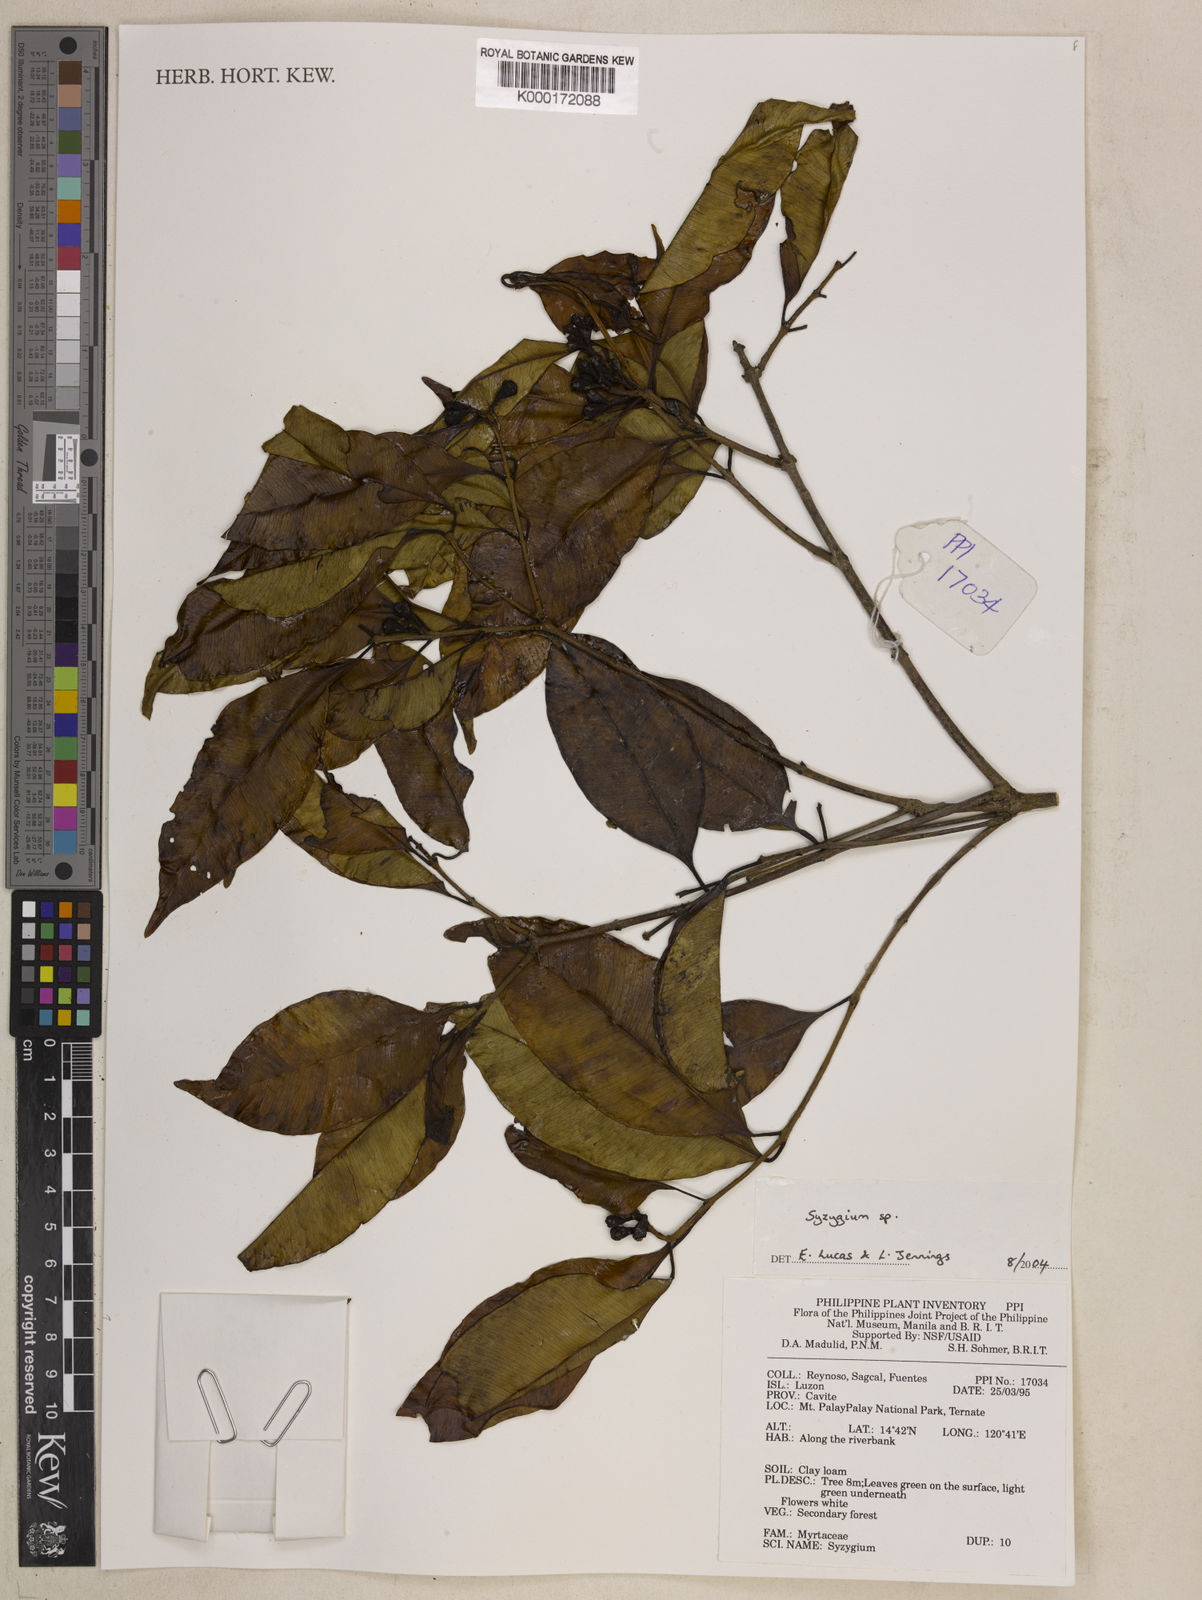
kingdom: Plantae
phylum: Tracheophyta
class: Magnoliopsida
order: Myrtales
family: Myrtaceae
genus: Syzygium
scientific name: Syzygium
